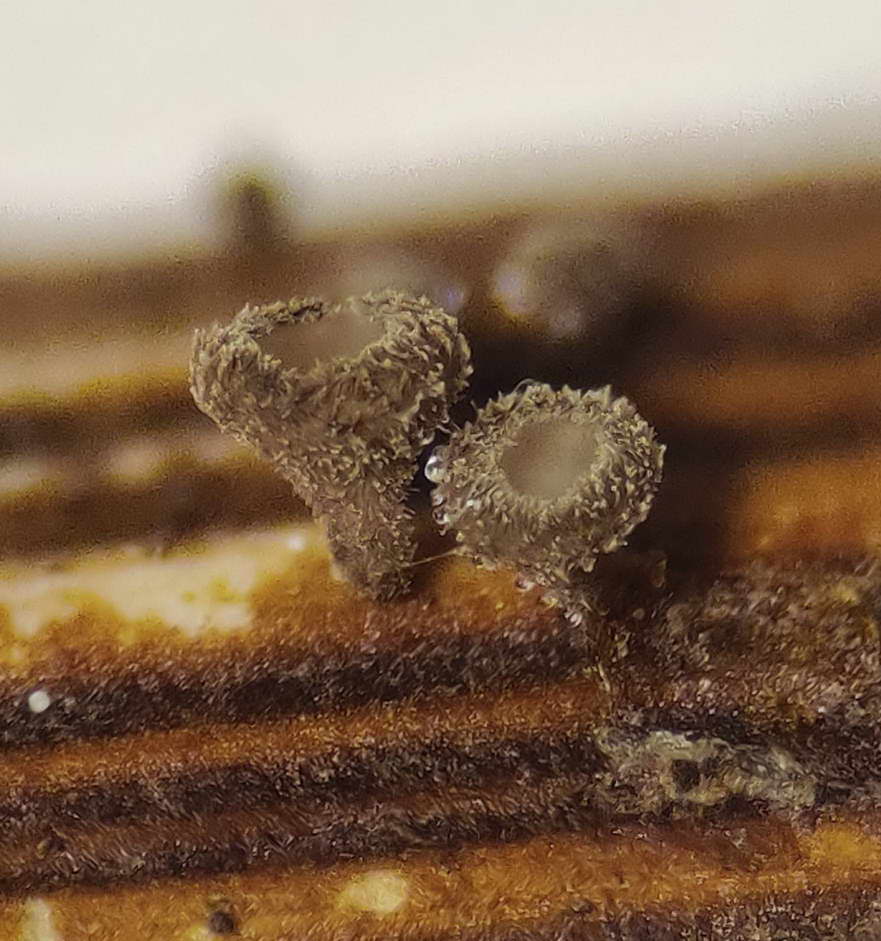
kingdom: Fungi
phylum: Ascomycota
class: Leotiomycetes
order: Helotiales
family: Lachnaceae
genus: Brunnipila
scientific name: Brunnipila clandestina
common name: hindbær-frynseskive
